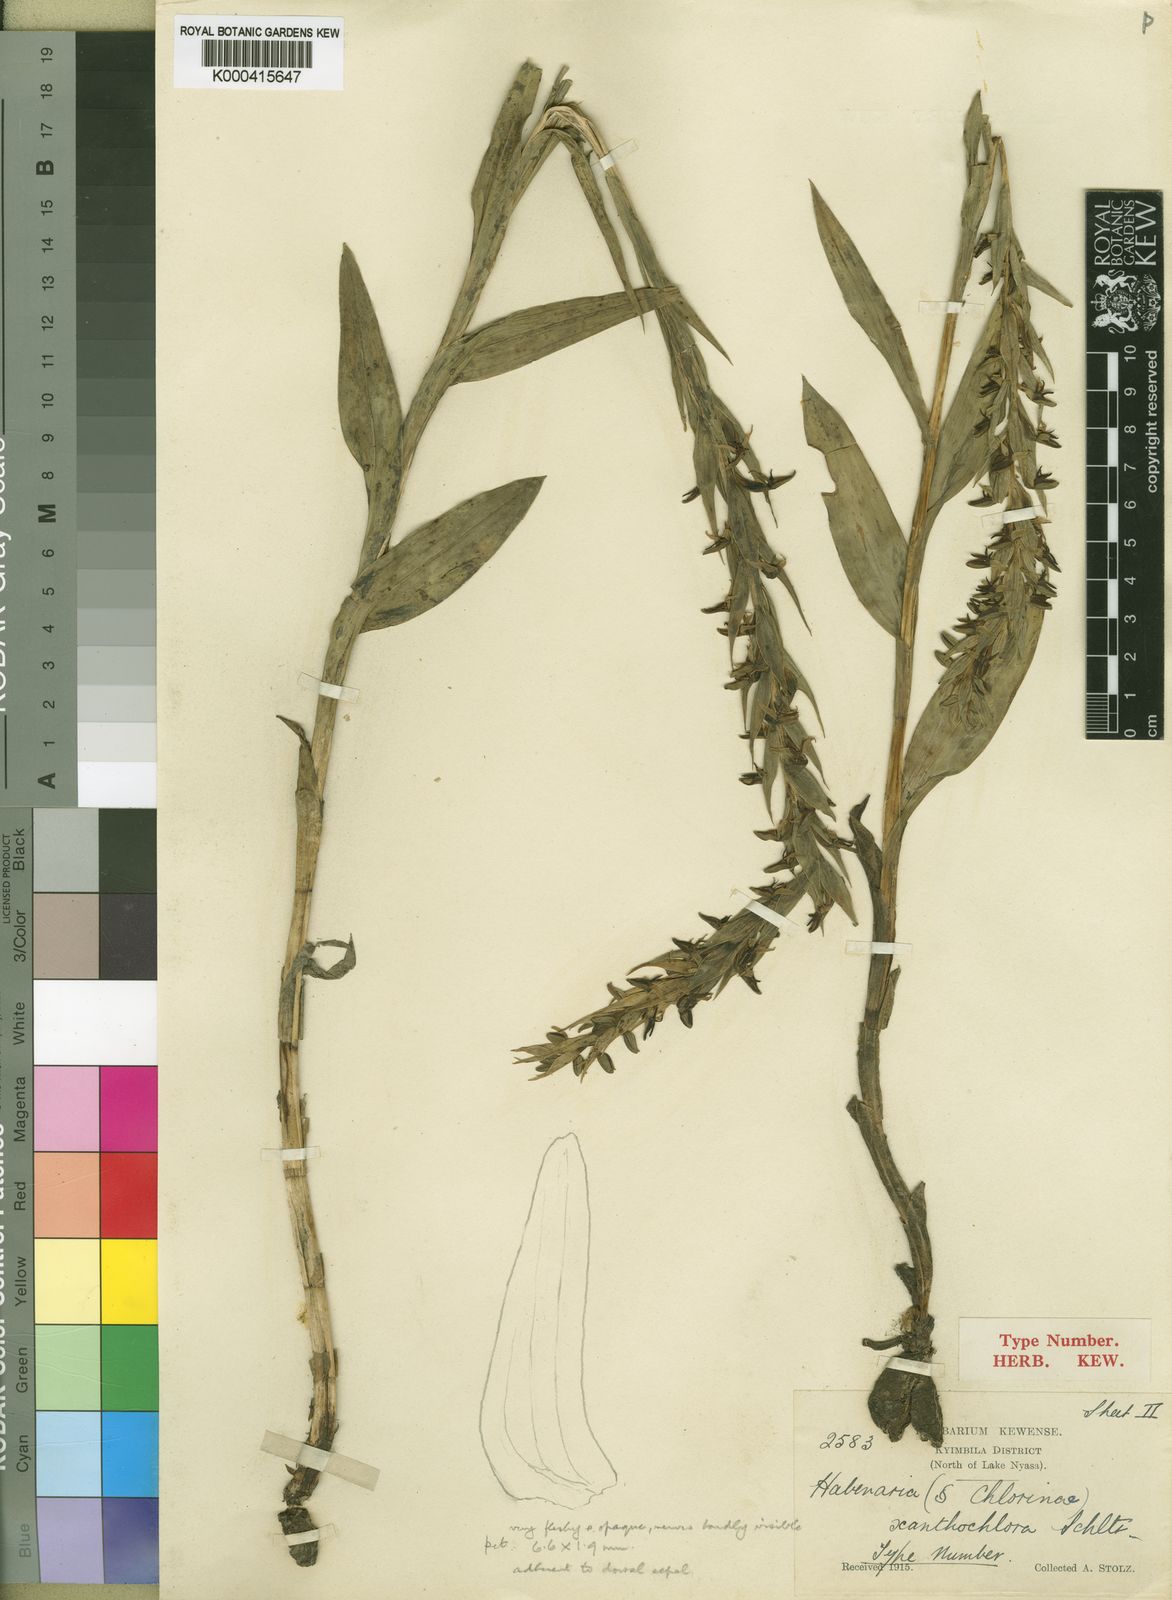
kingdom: Plantae
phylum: Tracheophyta
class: Liliopsida
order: Asparagales
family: Orchidaceae
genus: Habenaria
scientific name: Habenaria xanthochlora
